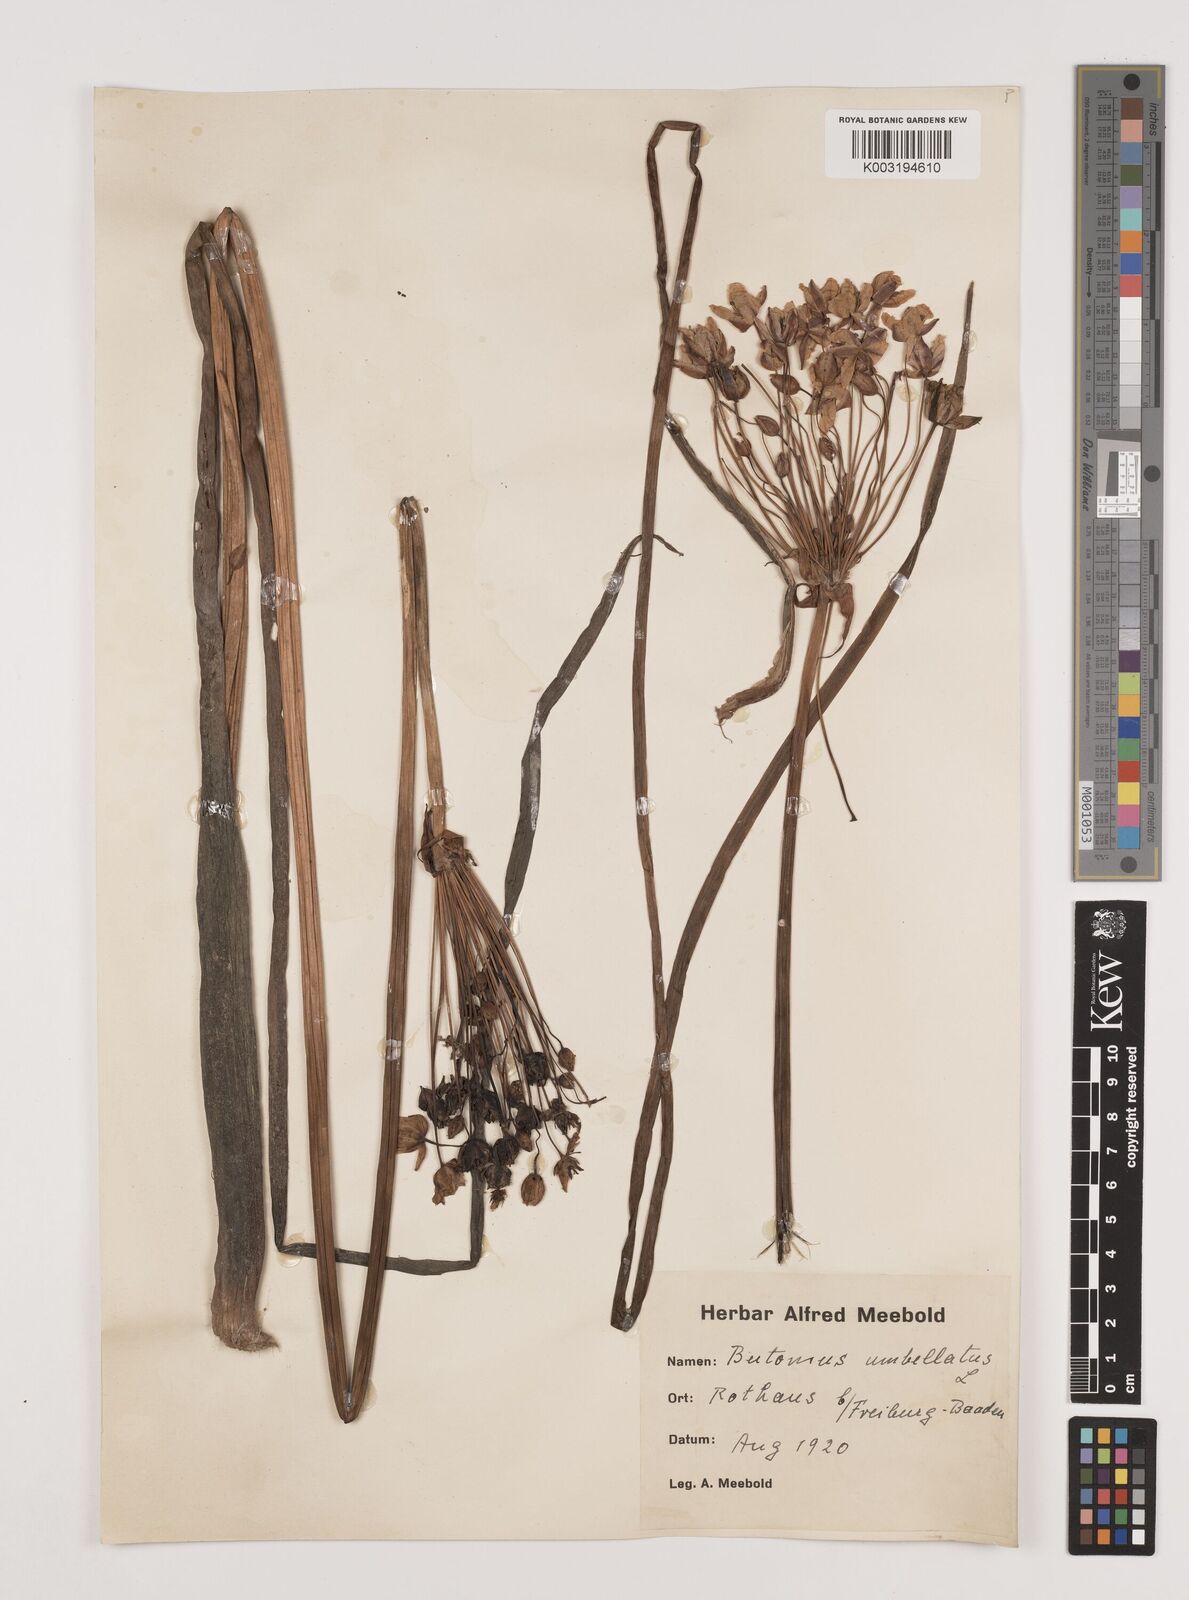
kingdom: Plantae
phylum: Tracheophyta
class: Liliopsida
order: Alismatales
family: Butomaceae
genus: Butomus
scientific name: Butomus umbellatus
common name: Flowering-rush
